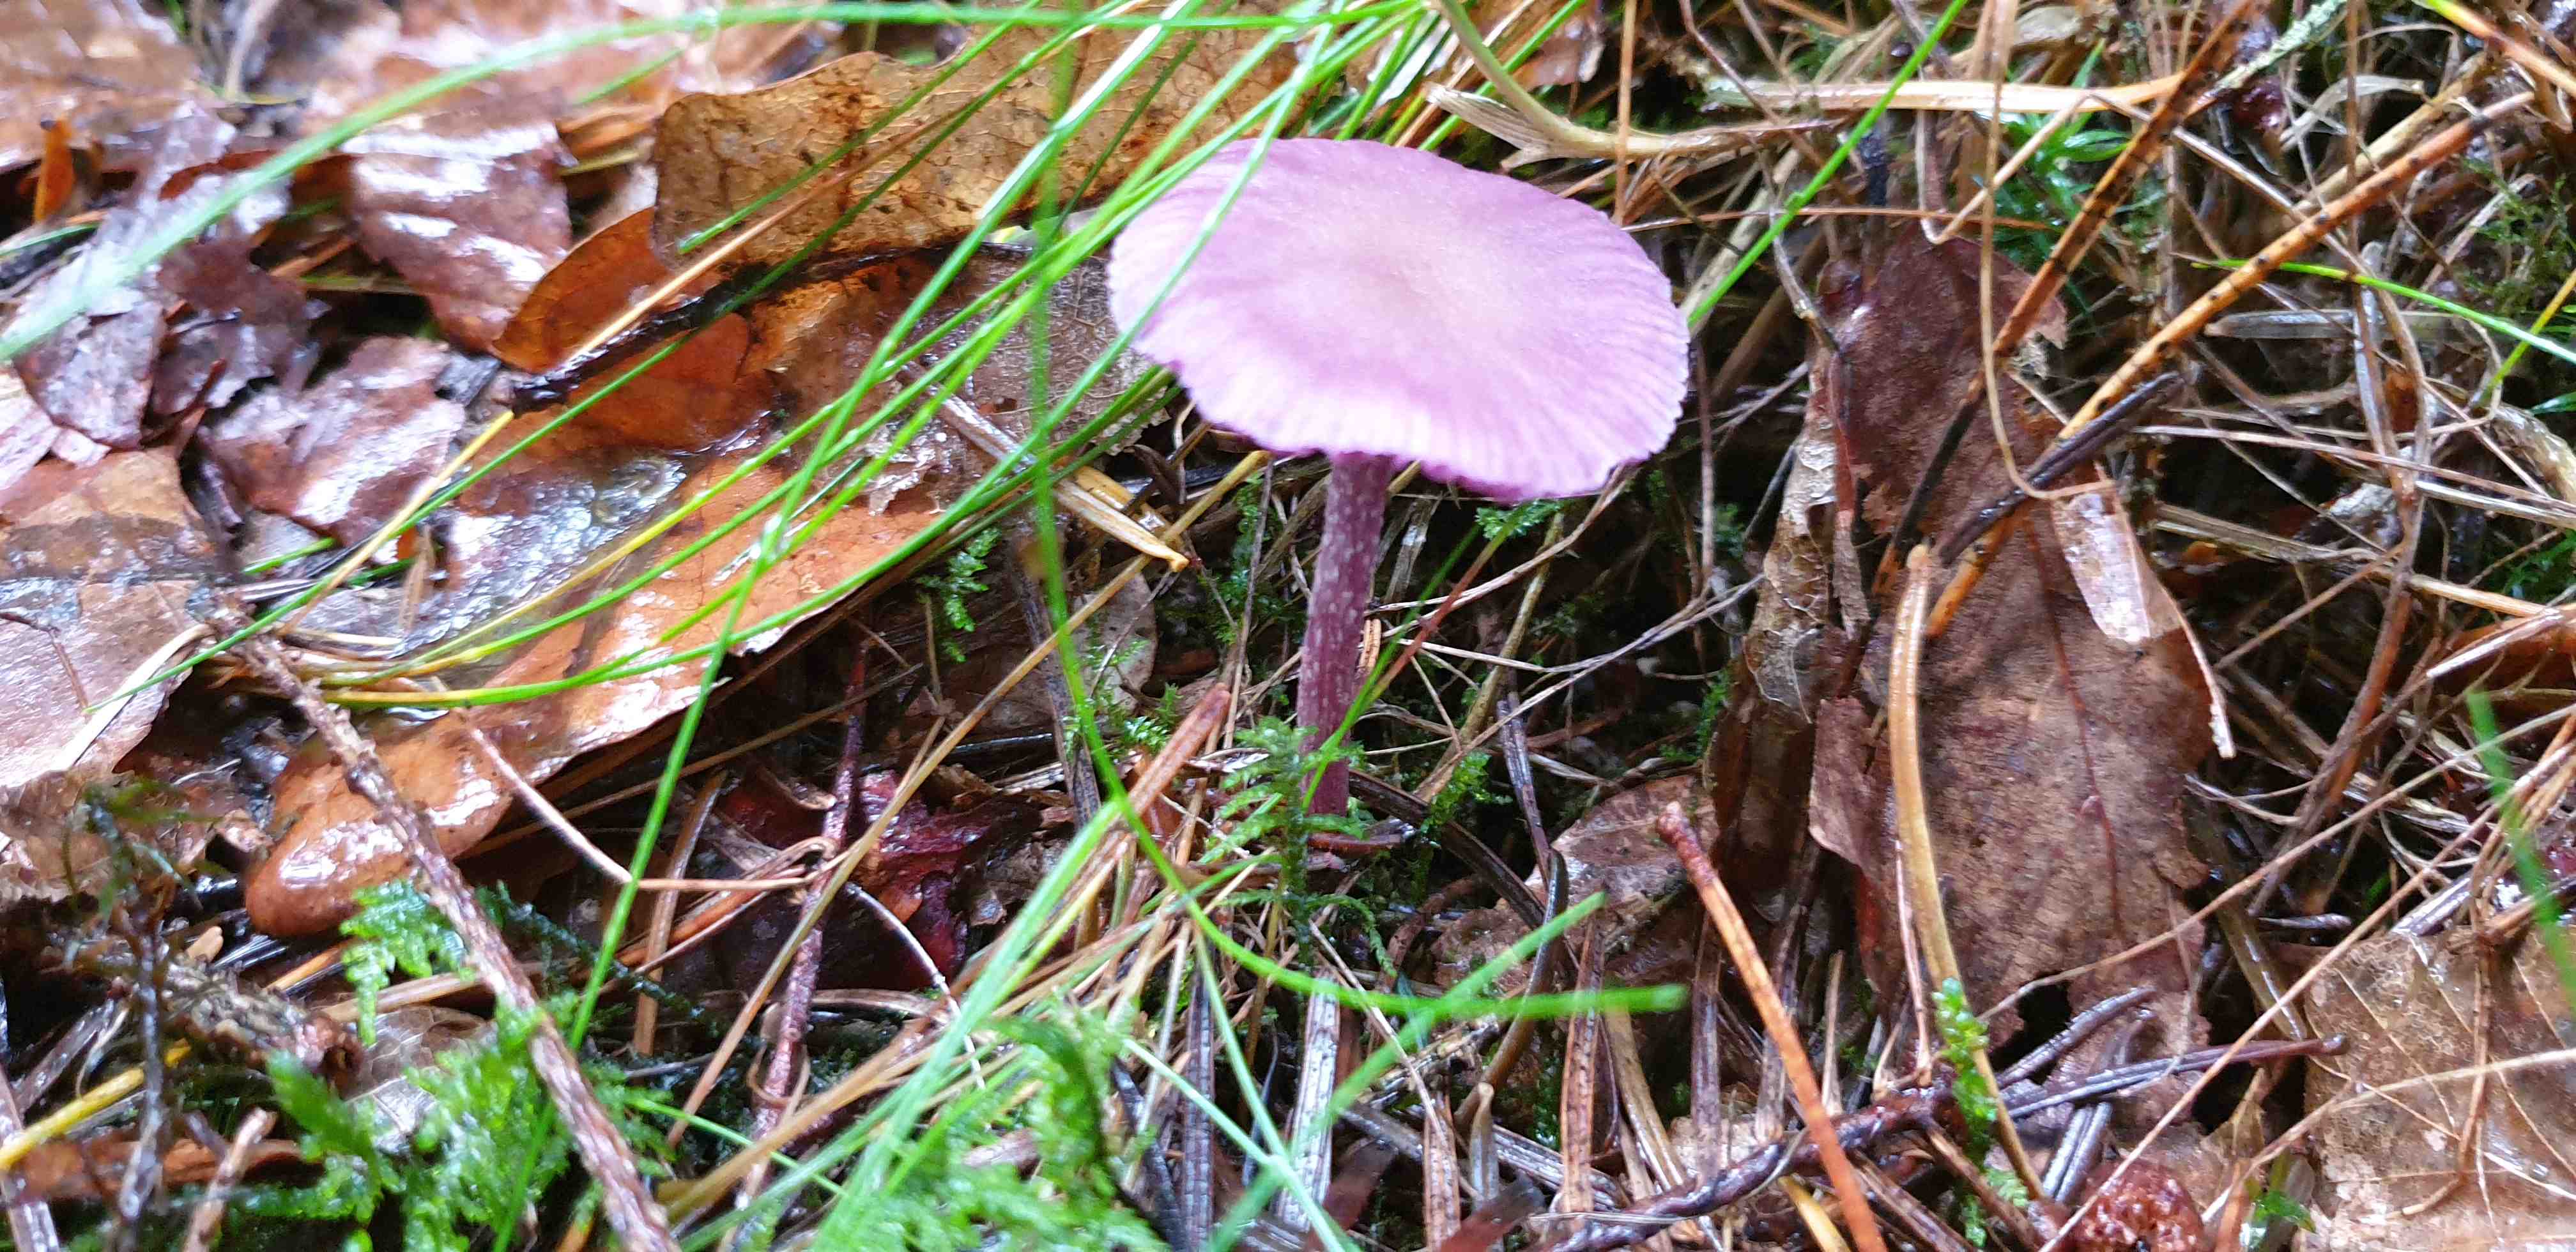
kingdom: Fungi
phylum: Basidiomycota
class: Agaricomycetes
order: Agaricales
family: Hydnangiaceae
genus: Laccaria
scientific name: Laccaria amethystina
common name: violet ametysthat
